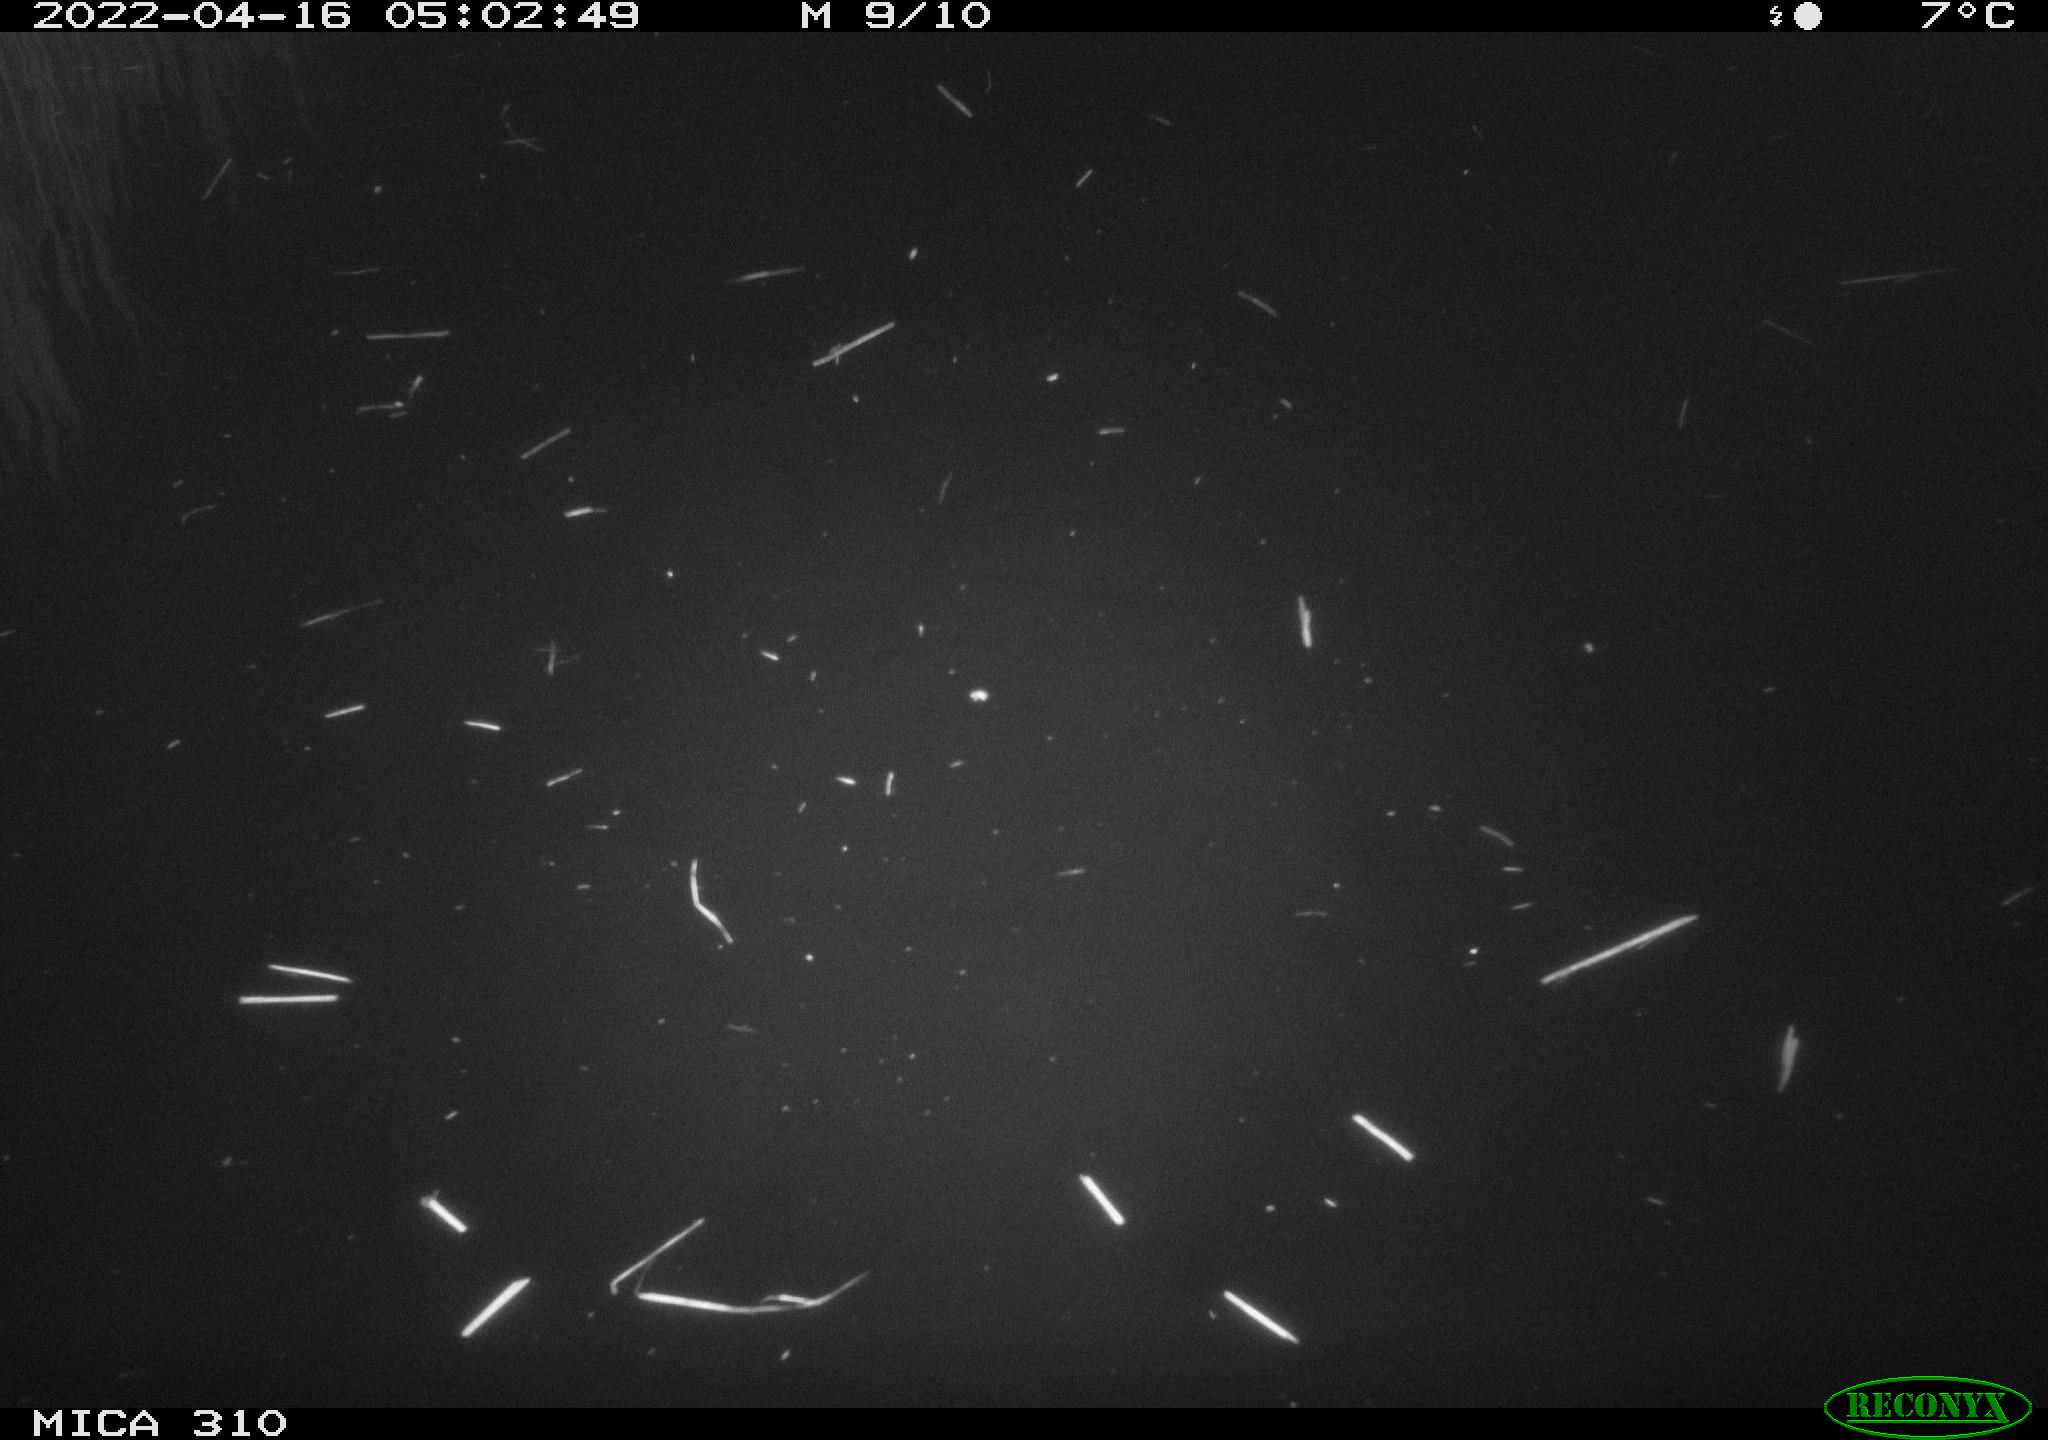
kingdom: Animalia
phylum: Chordata
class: Aves
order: Anseriformes
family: Anatidae
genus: Anas
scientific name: Anas platyrhynchos
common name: Mallard
